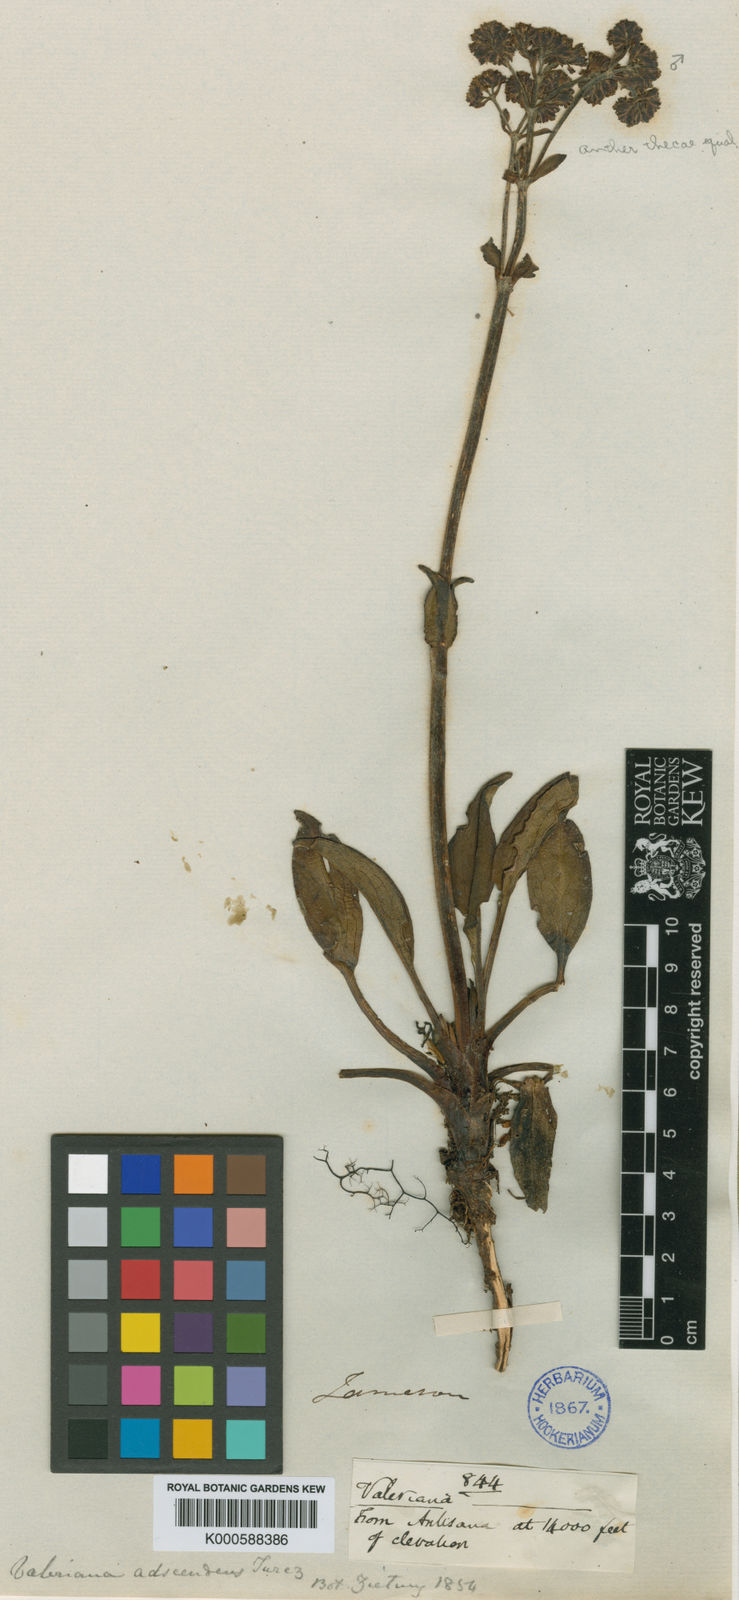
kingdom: Plantae
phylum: Tracheophyta
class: Magnoliopsida
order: Dipsacales
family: Caprifoliaceae
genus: Valeriana
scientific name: Valeriana adscendens
